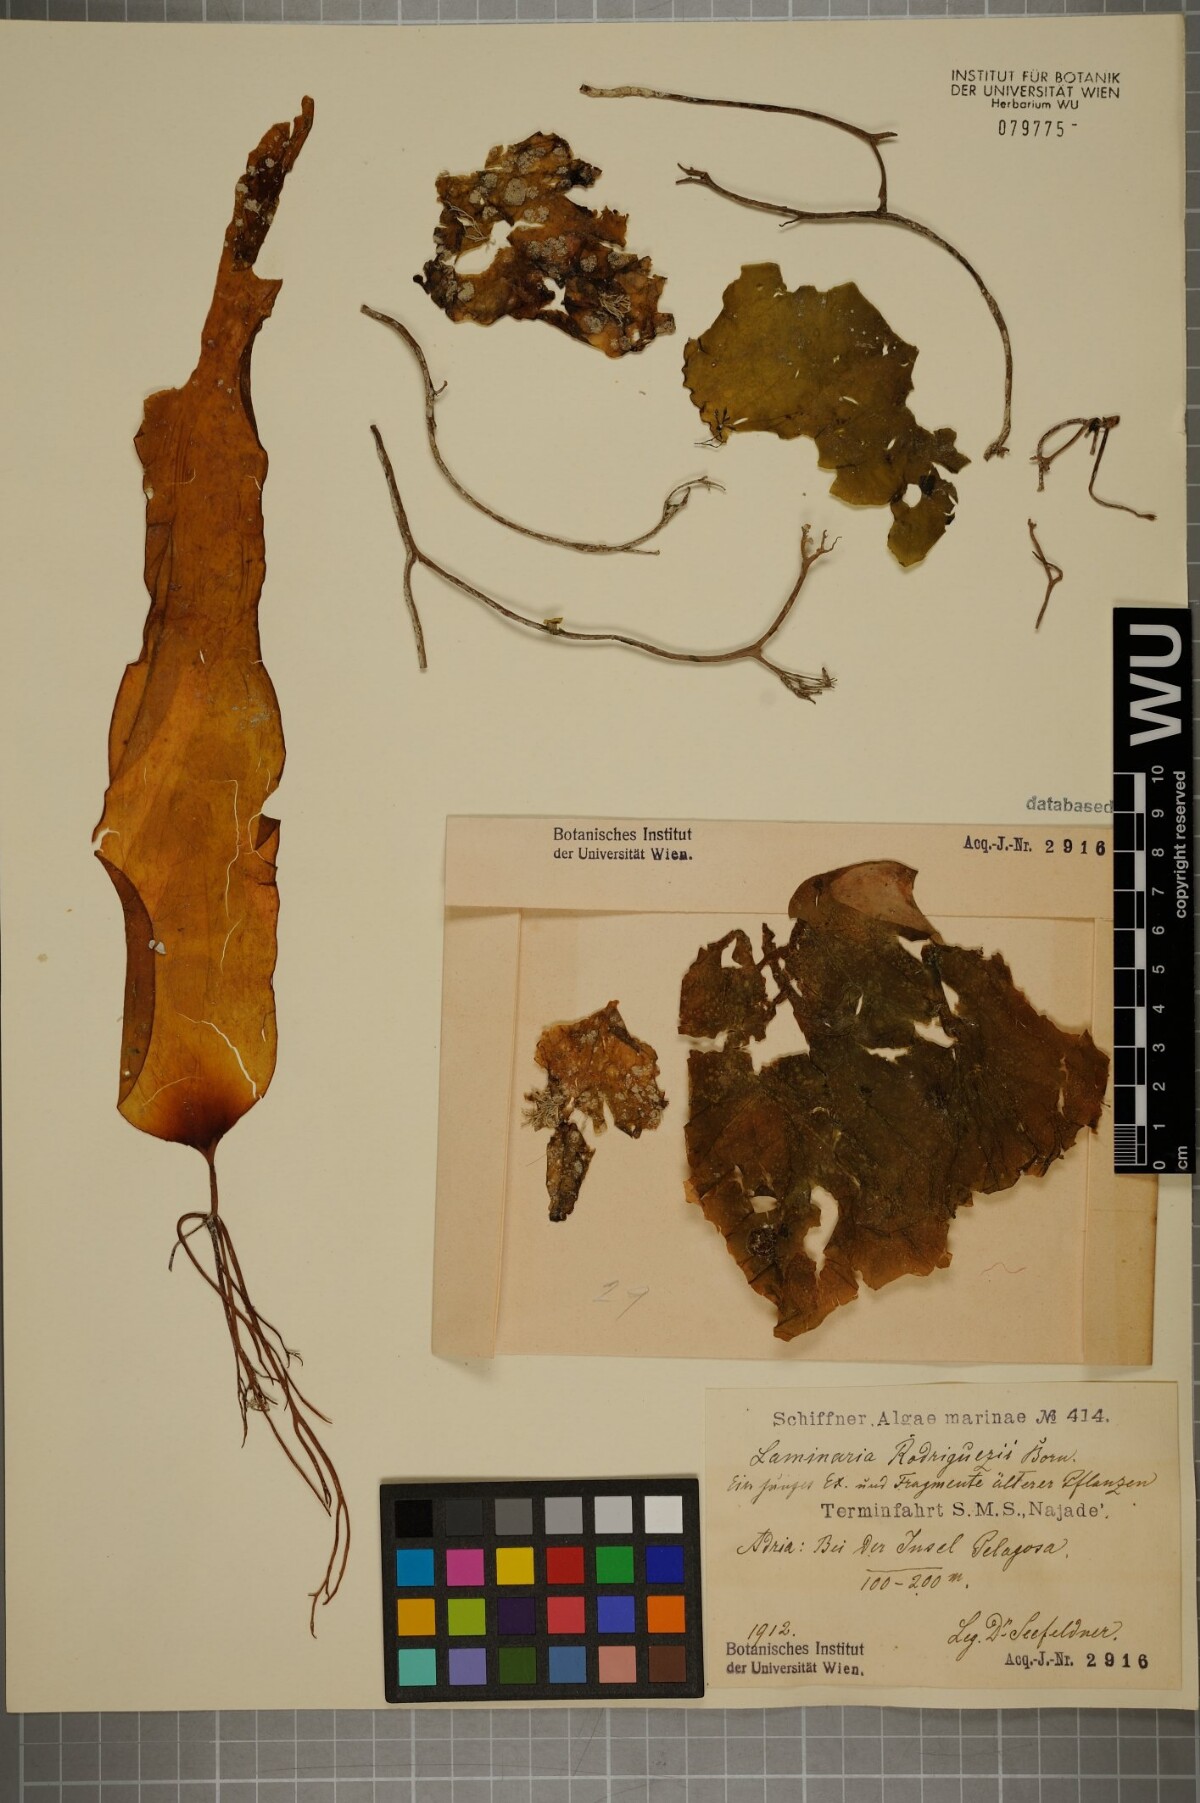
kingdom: Chromista
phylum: Ochrophyta
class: Phaeophyceae
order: Laminariales
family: Laminariaceae
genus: Laminaria
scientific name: Laminaria rodriguezii
